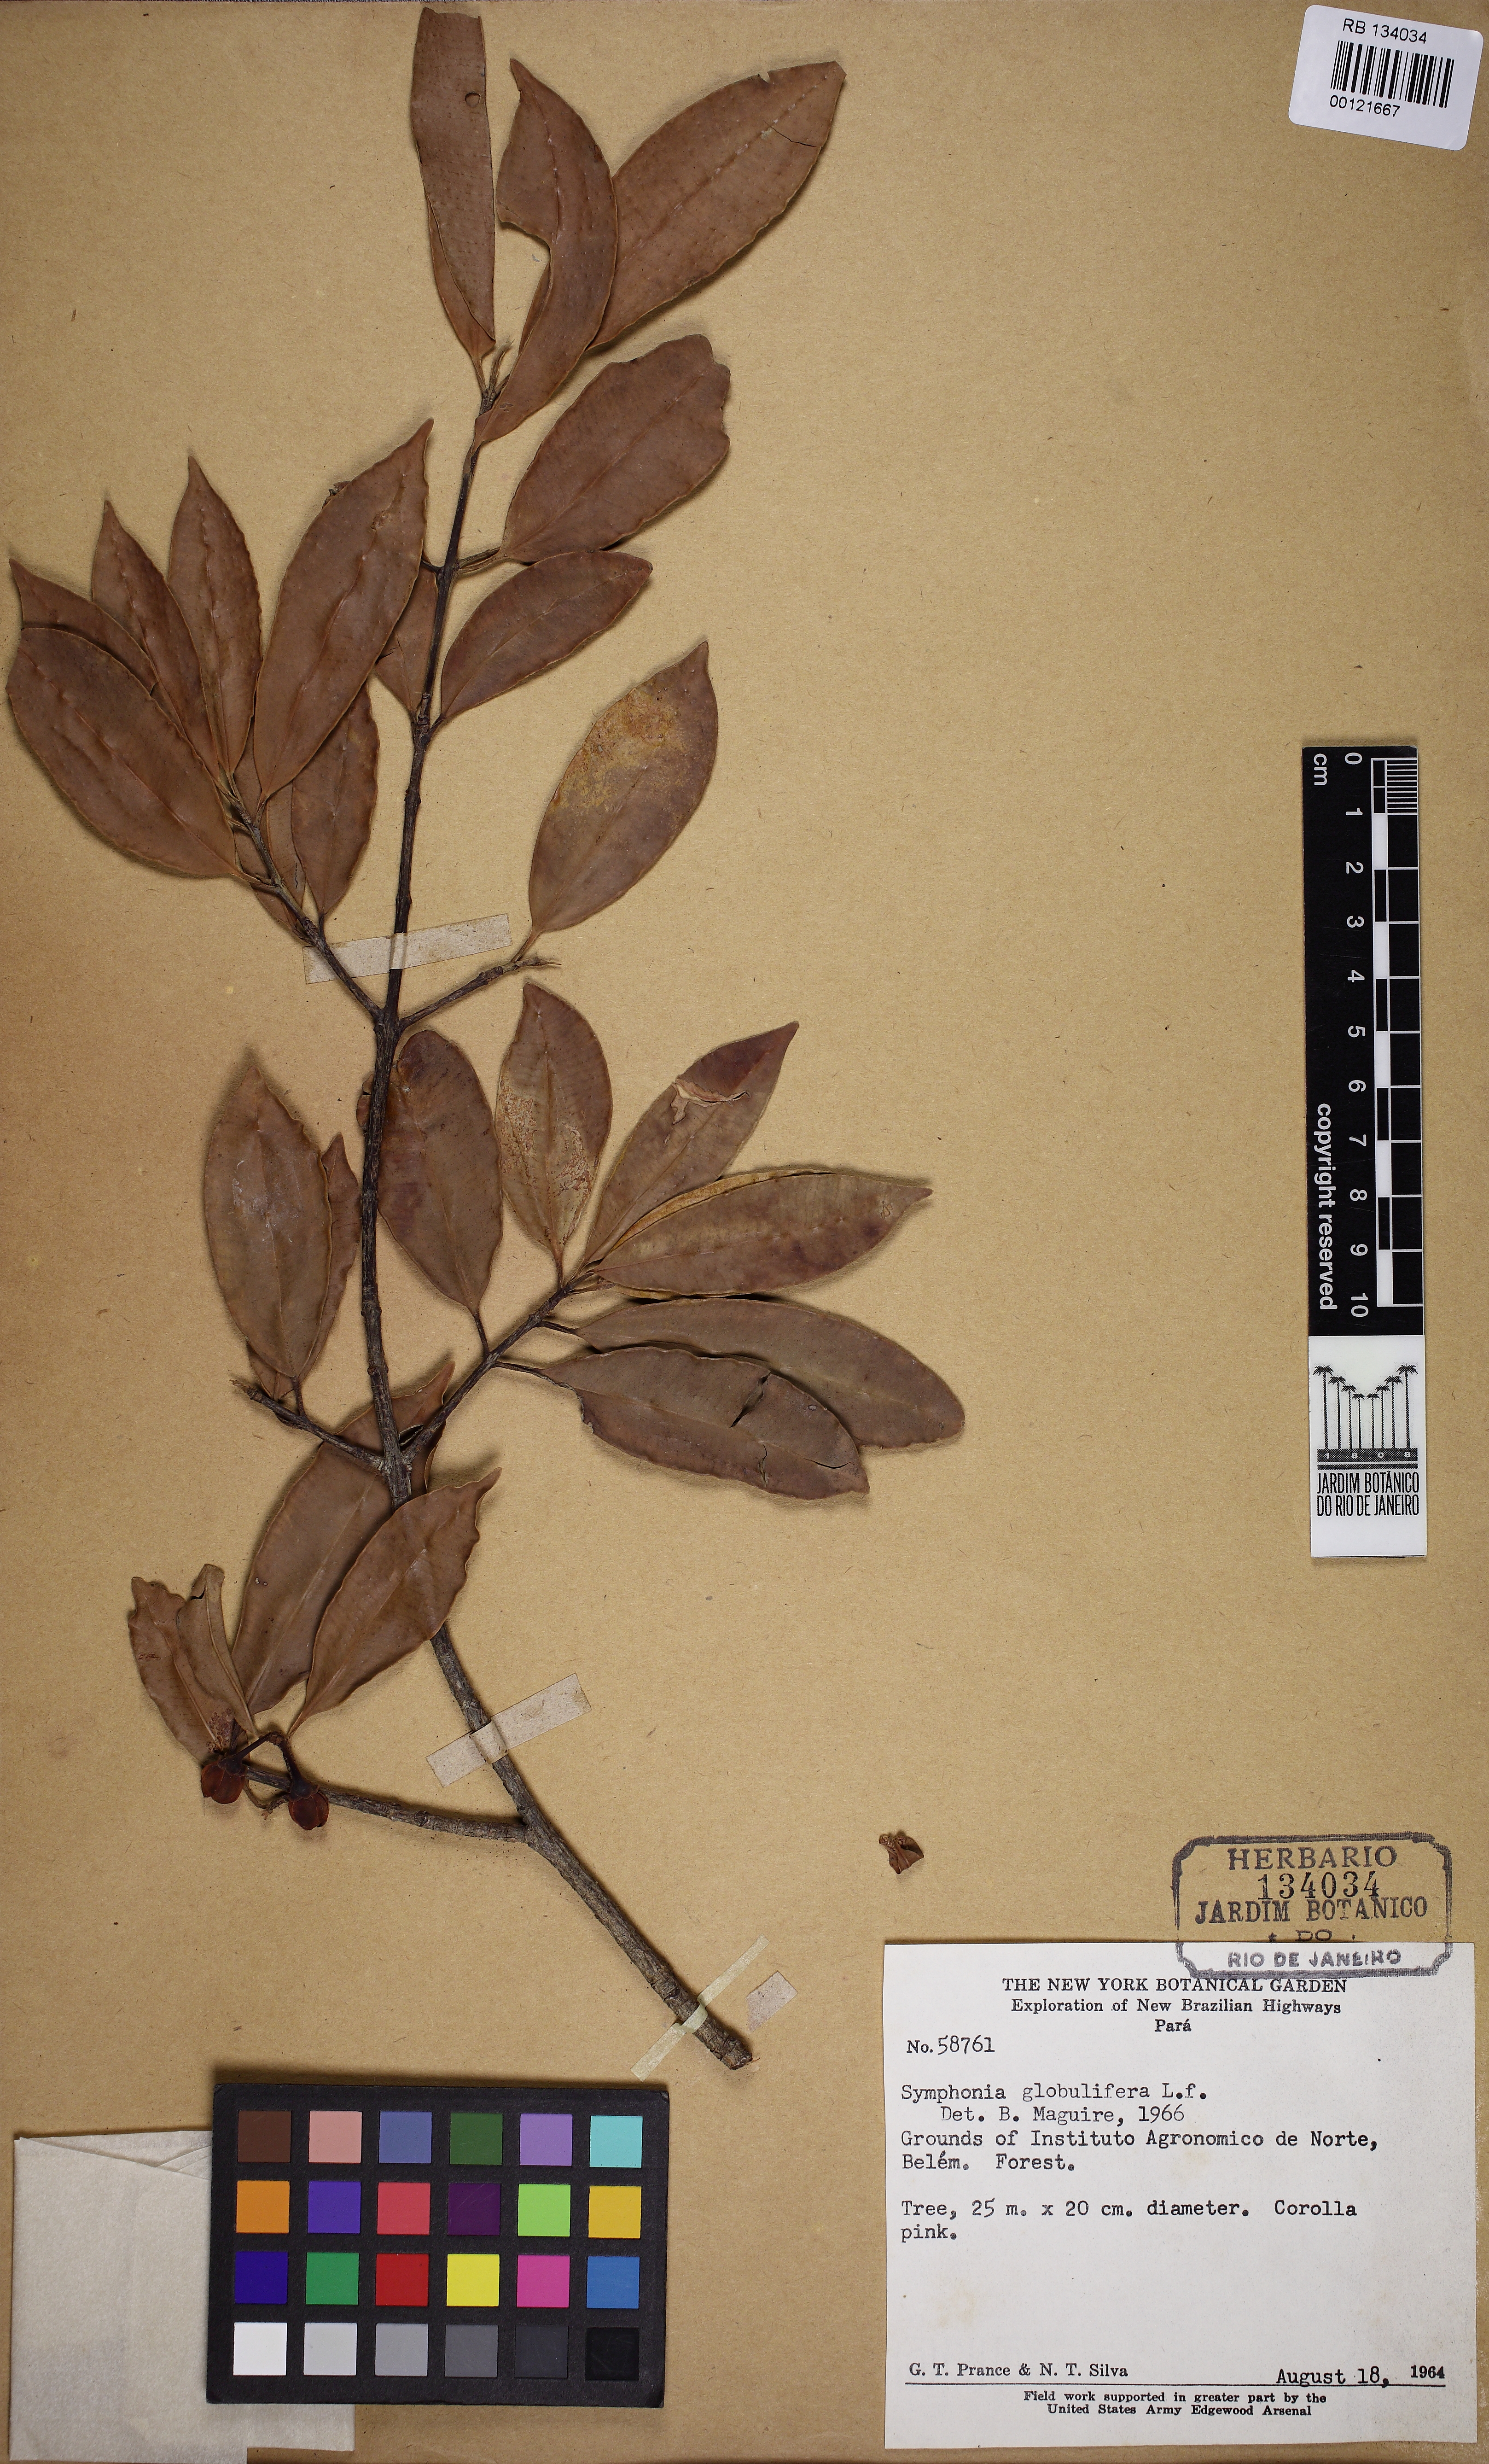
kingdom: Plantae
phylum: Tracheophyta
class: Magnoliopsida
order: Malpighiales
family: Clusiaceae
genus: Symphonia
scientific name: Symphonia globulifera
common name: Boarwood
